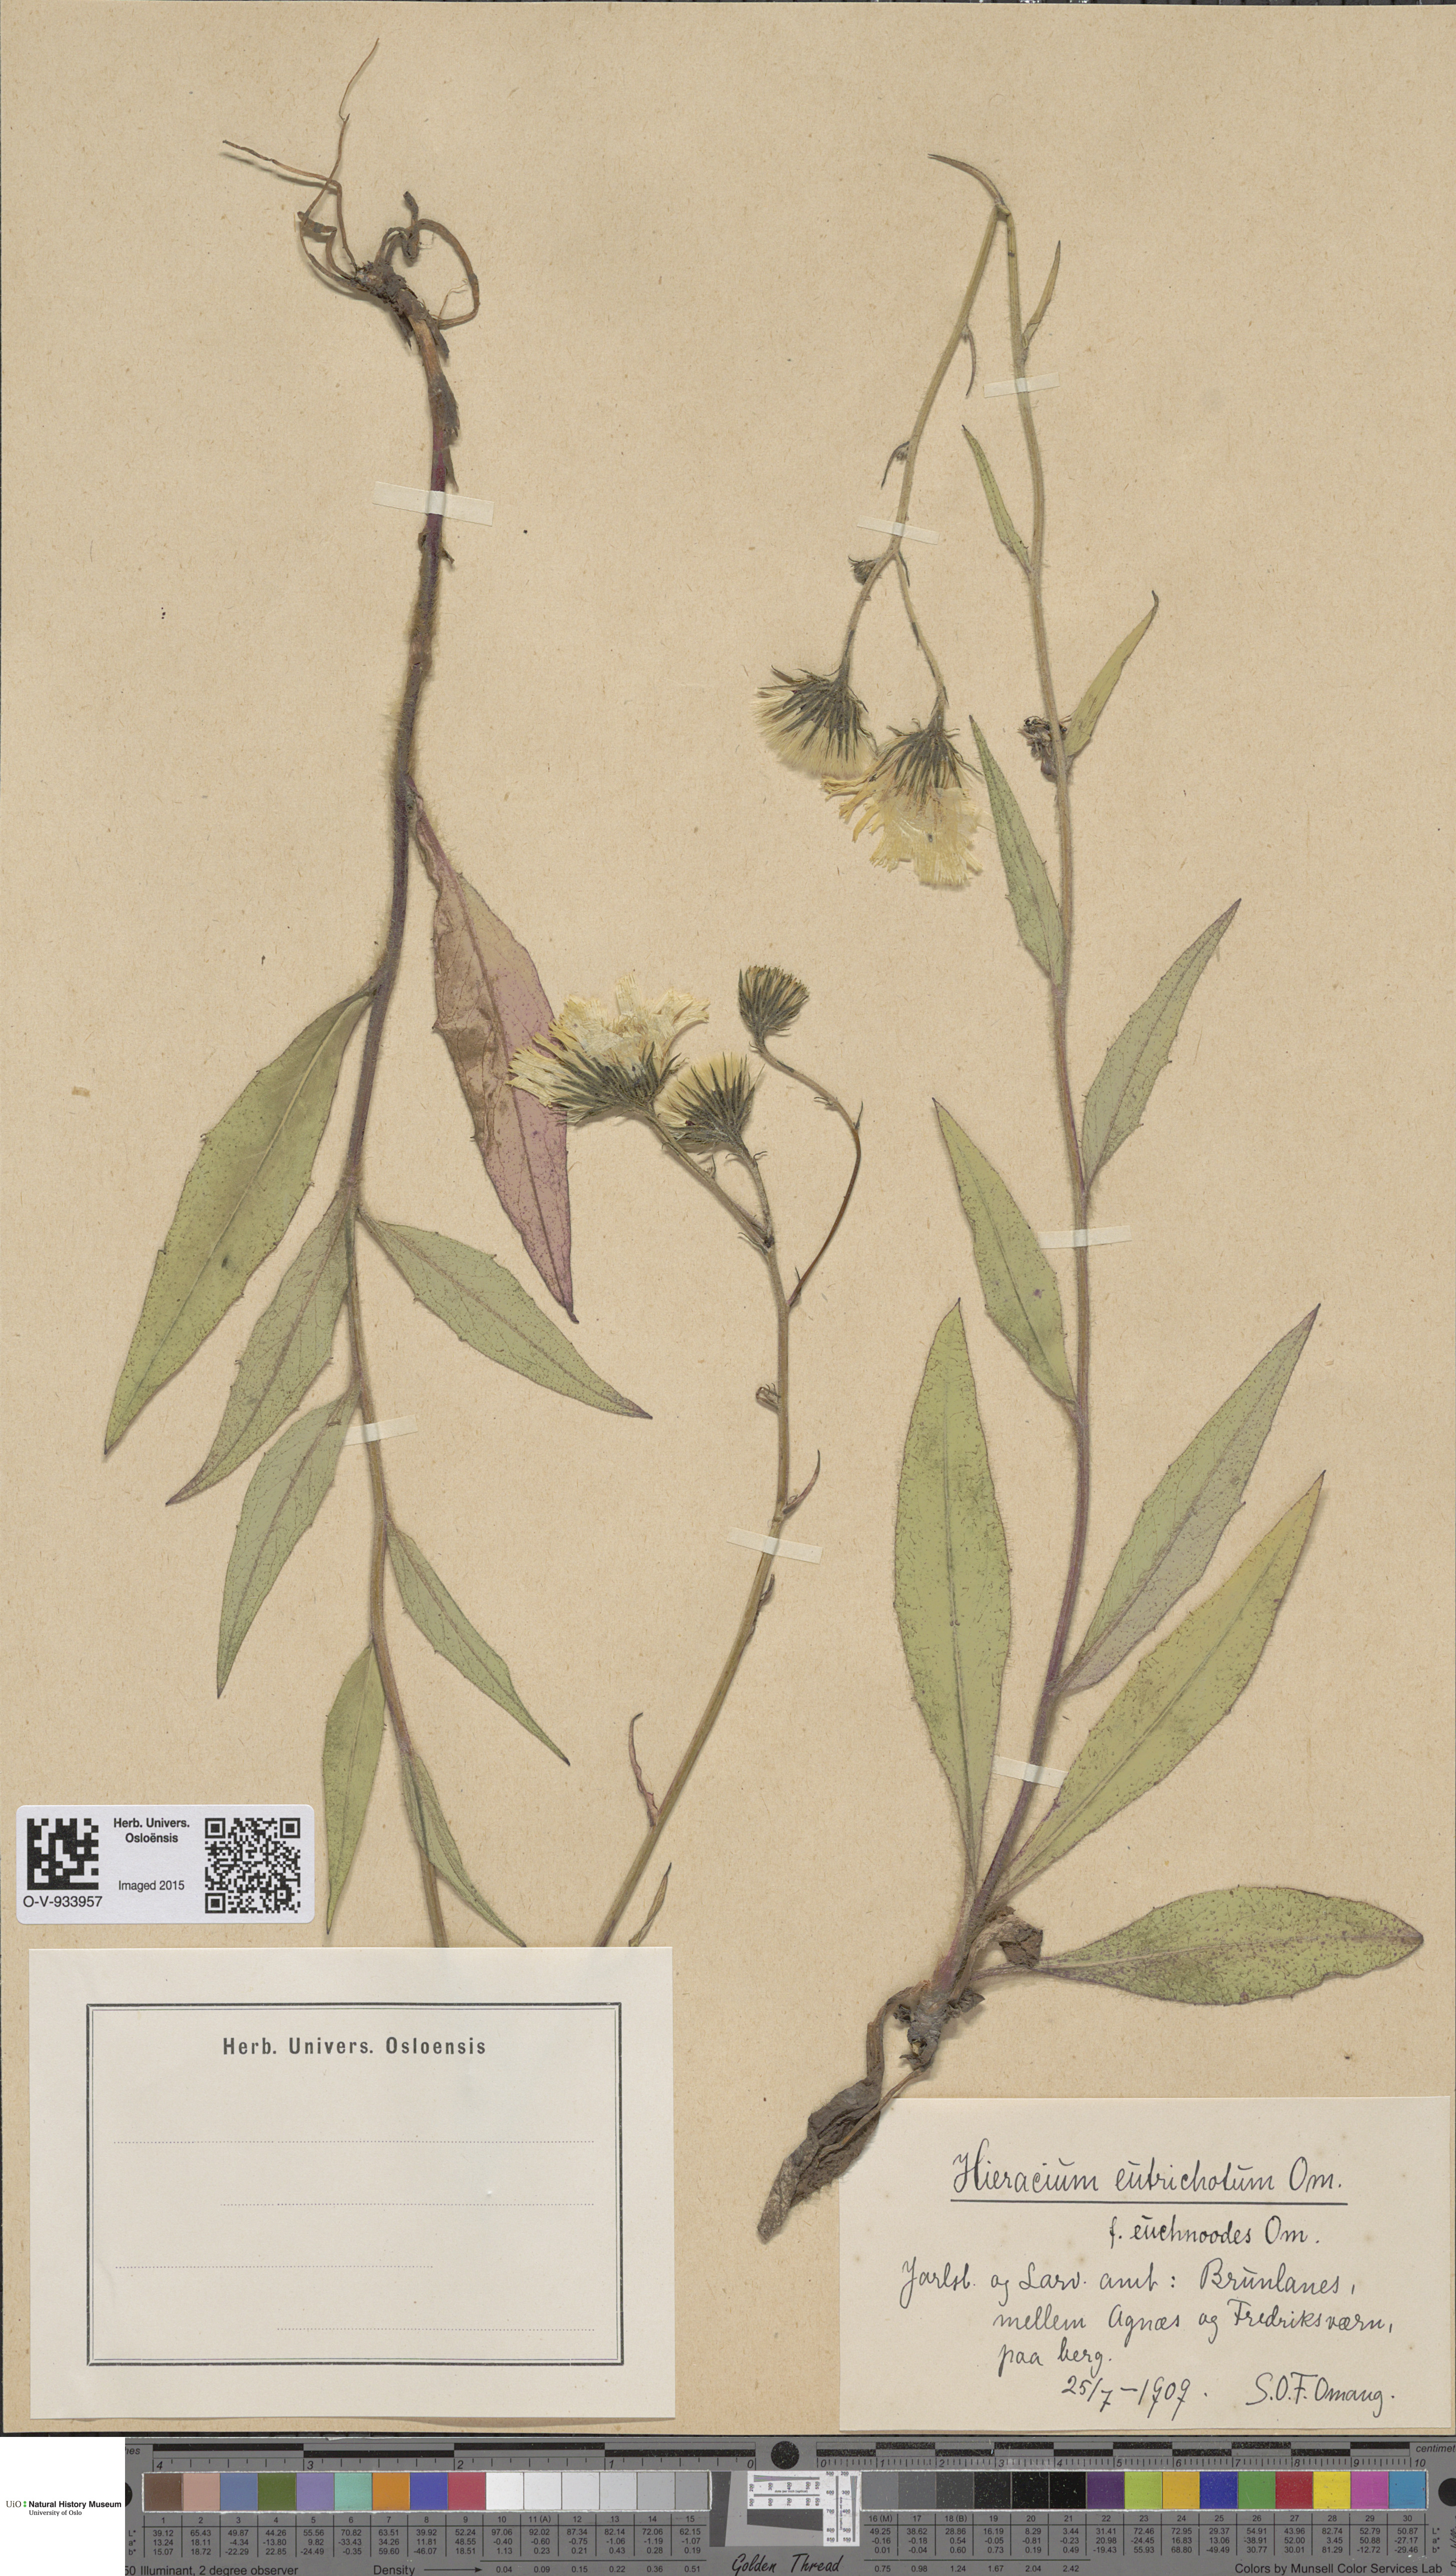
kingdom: Plantae
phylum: Tracheophyta
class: Magnoliopsida
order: Asterales
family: Asteraceae
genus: Hieracium
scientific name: Hieracium
